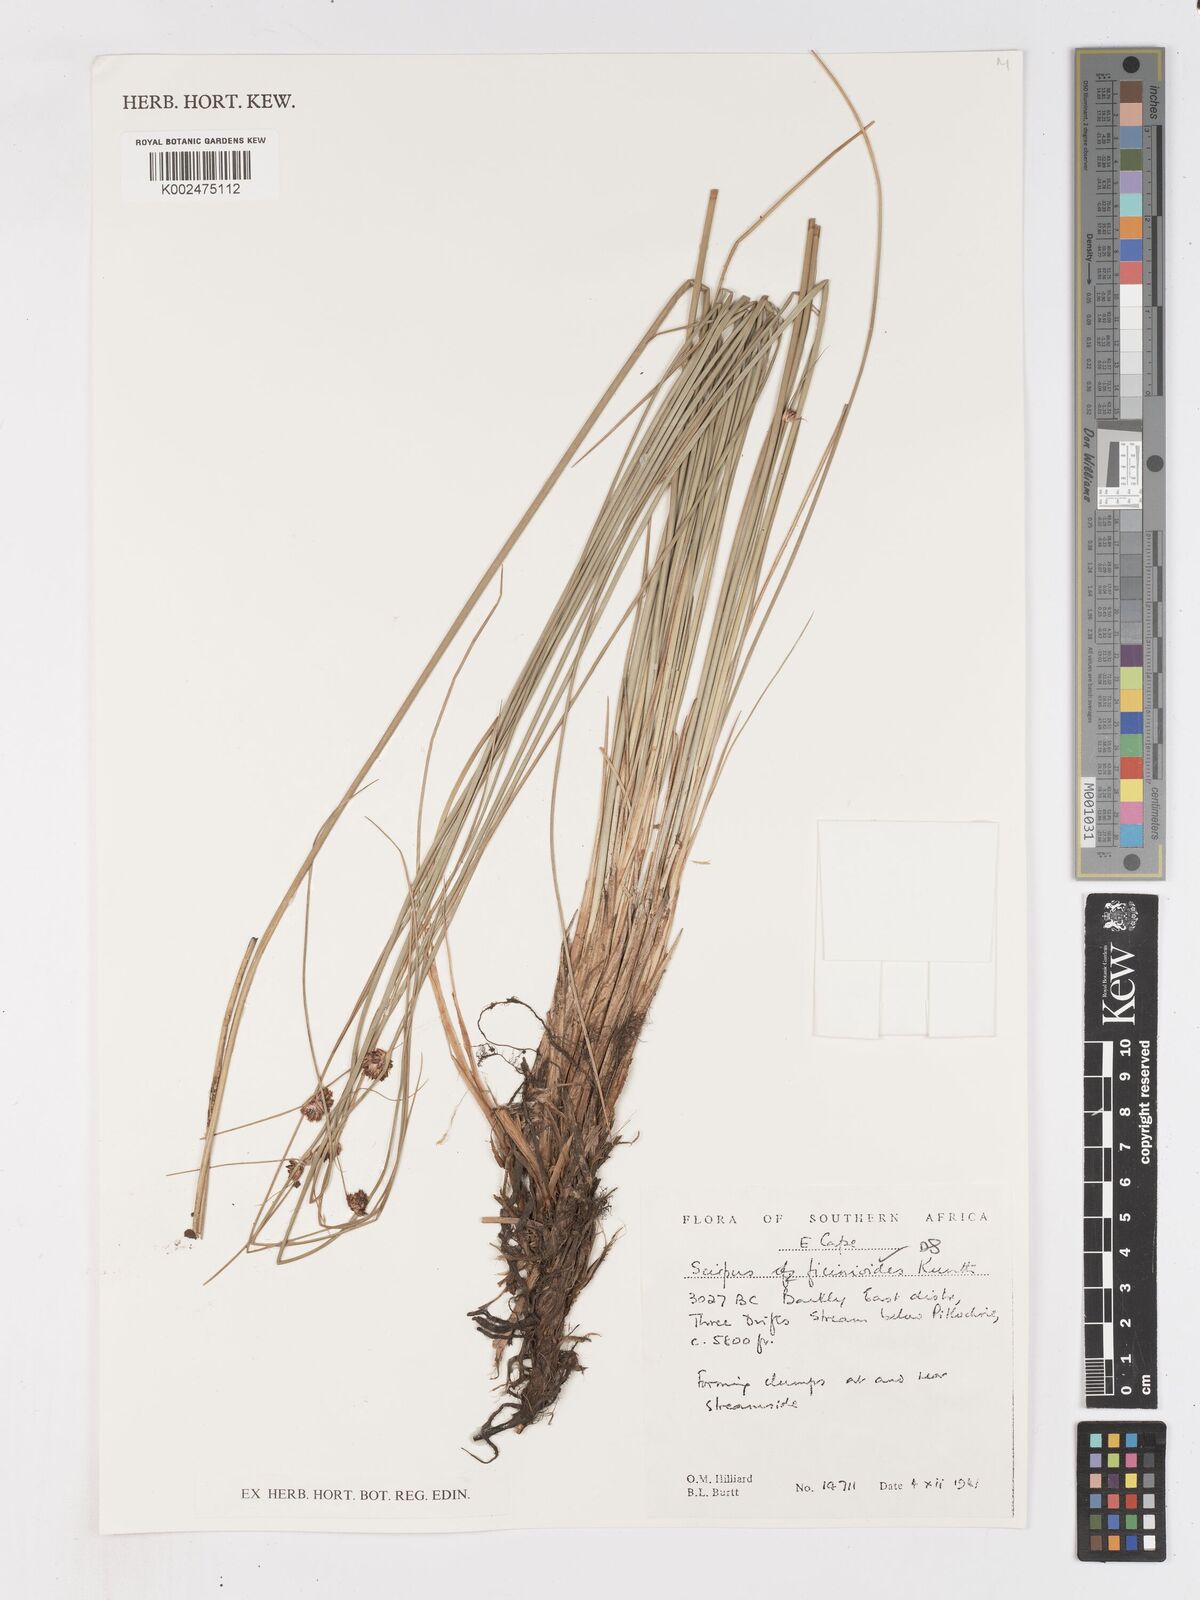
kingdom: Plantae
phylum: Tracheophyta
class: Liliopsida
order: Poales
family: Cyperaceae
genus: Ficinia
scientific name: Ficinia filiformis
